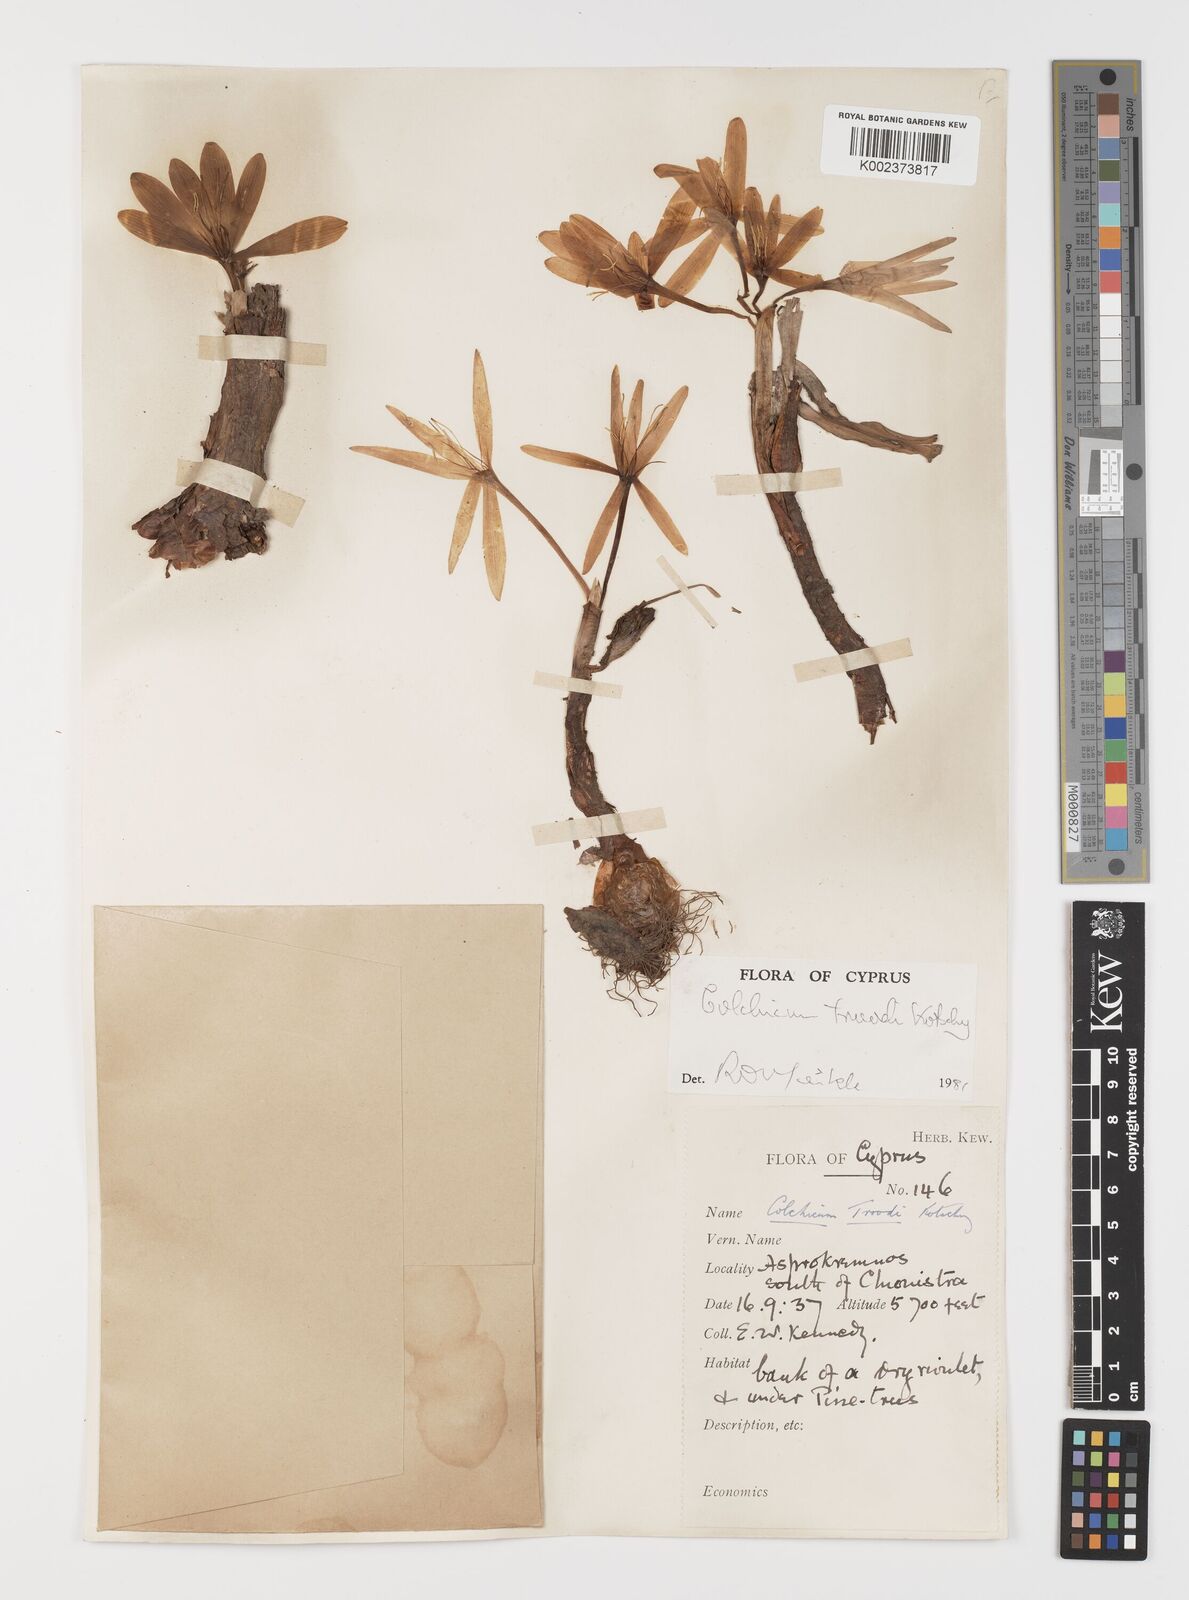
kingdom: Plantae
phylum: Tracheophyta
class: Liliopsida
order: Liliales
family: Colchicaceae
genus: Colchicum
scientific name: Colchicum troodi
